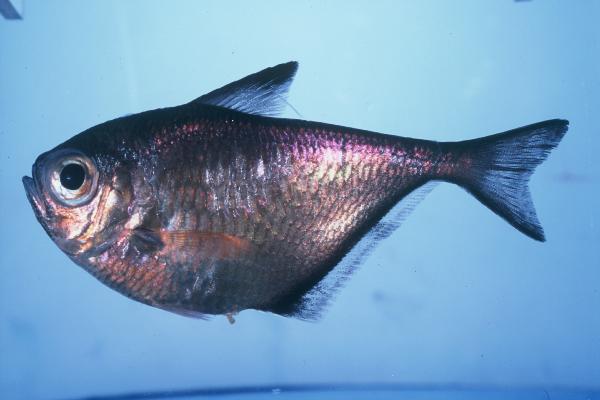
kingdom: Animalia
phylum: Chordata
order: Perciformes
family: Pempheridae
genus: Pempheris
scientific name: Pempheris connelli
